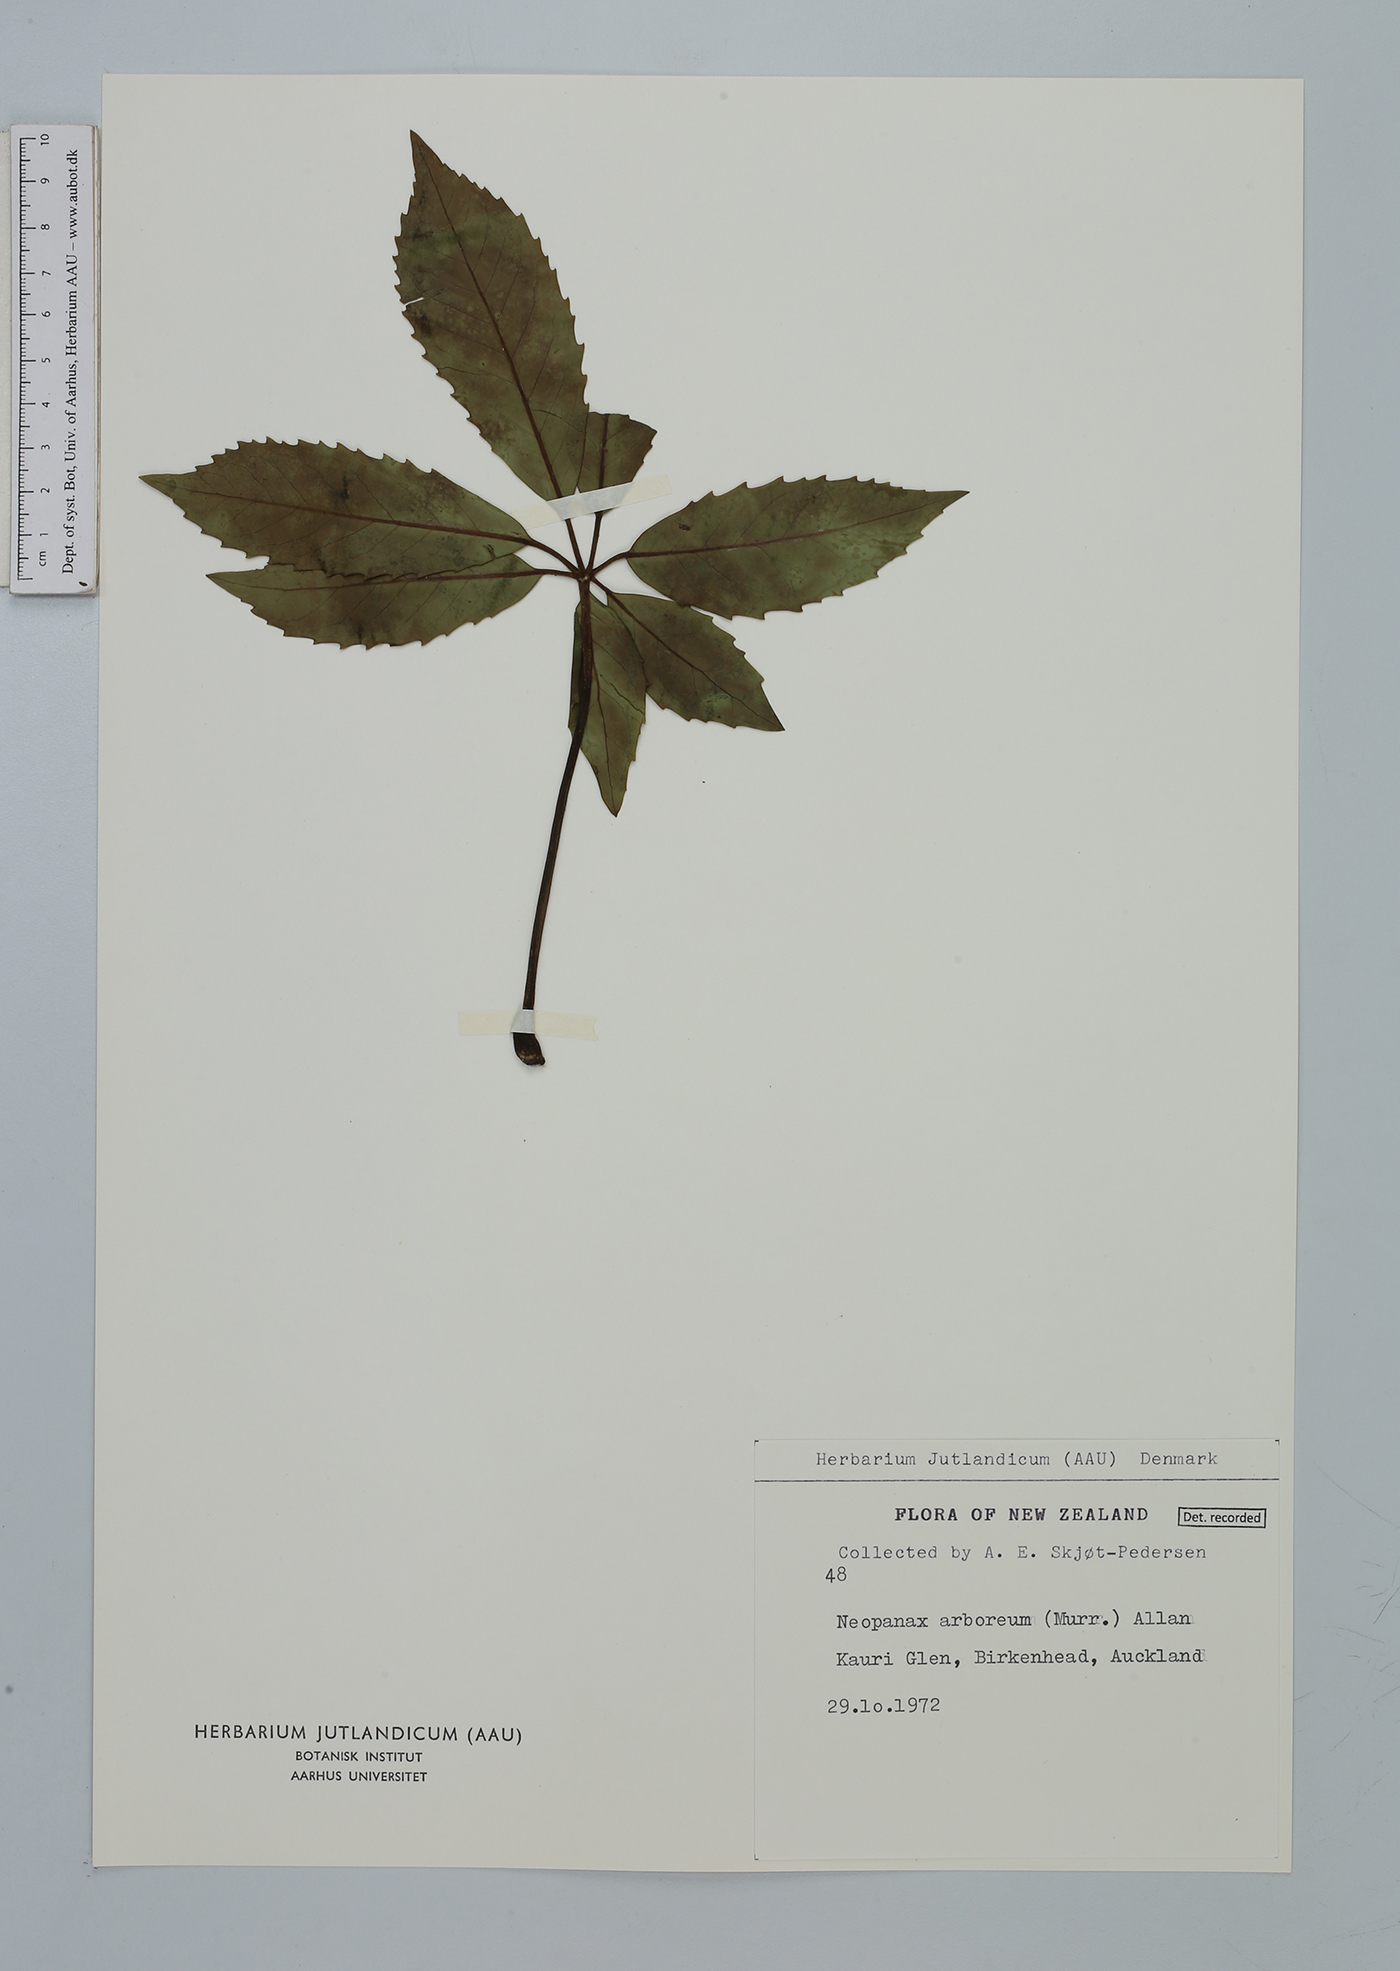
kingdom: Plantae
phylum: Tracheophyta
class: Magnoliopsida
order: Apiales
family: Araliaceae
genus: Neopanax
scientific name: Neopanax arboreus
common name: Five-fingers
